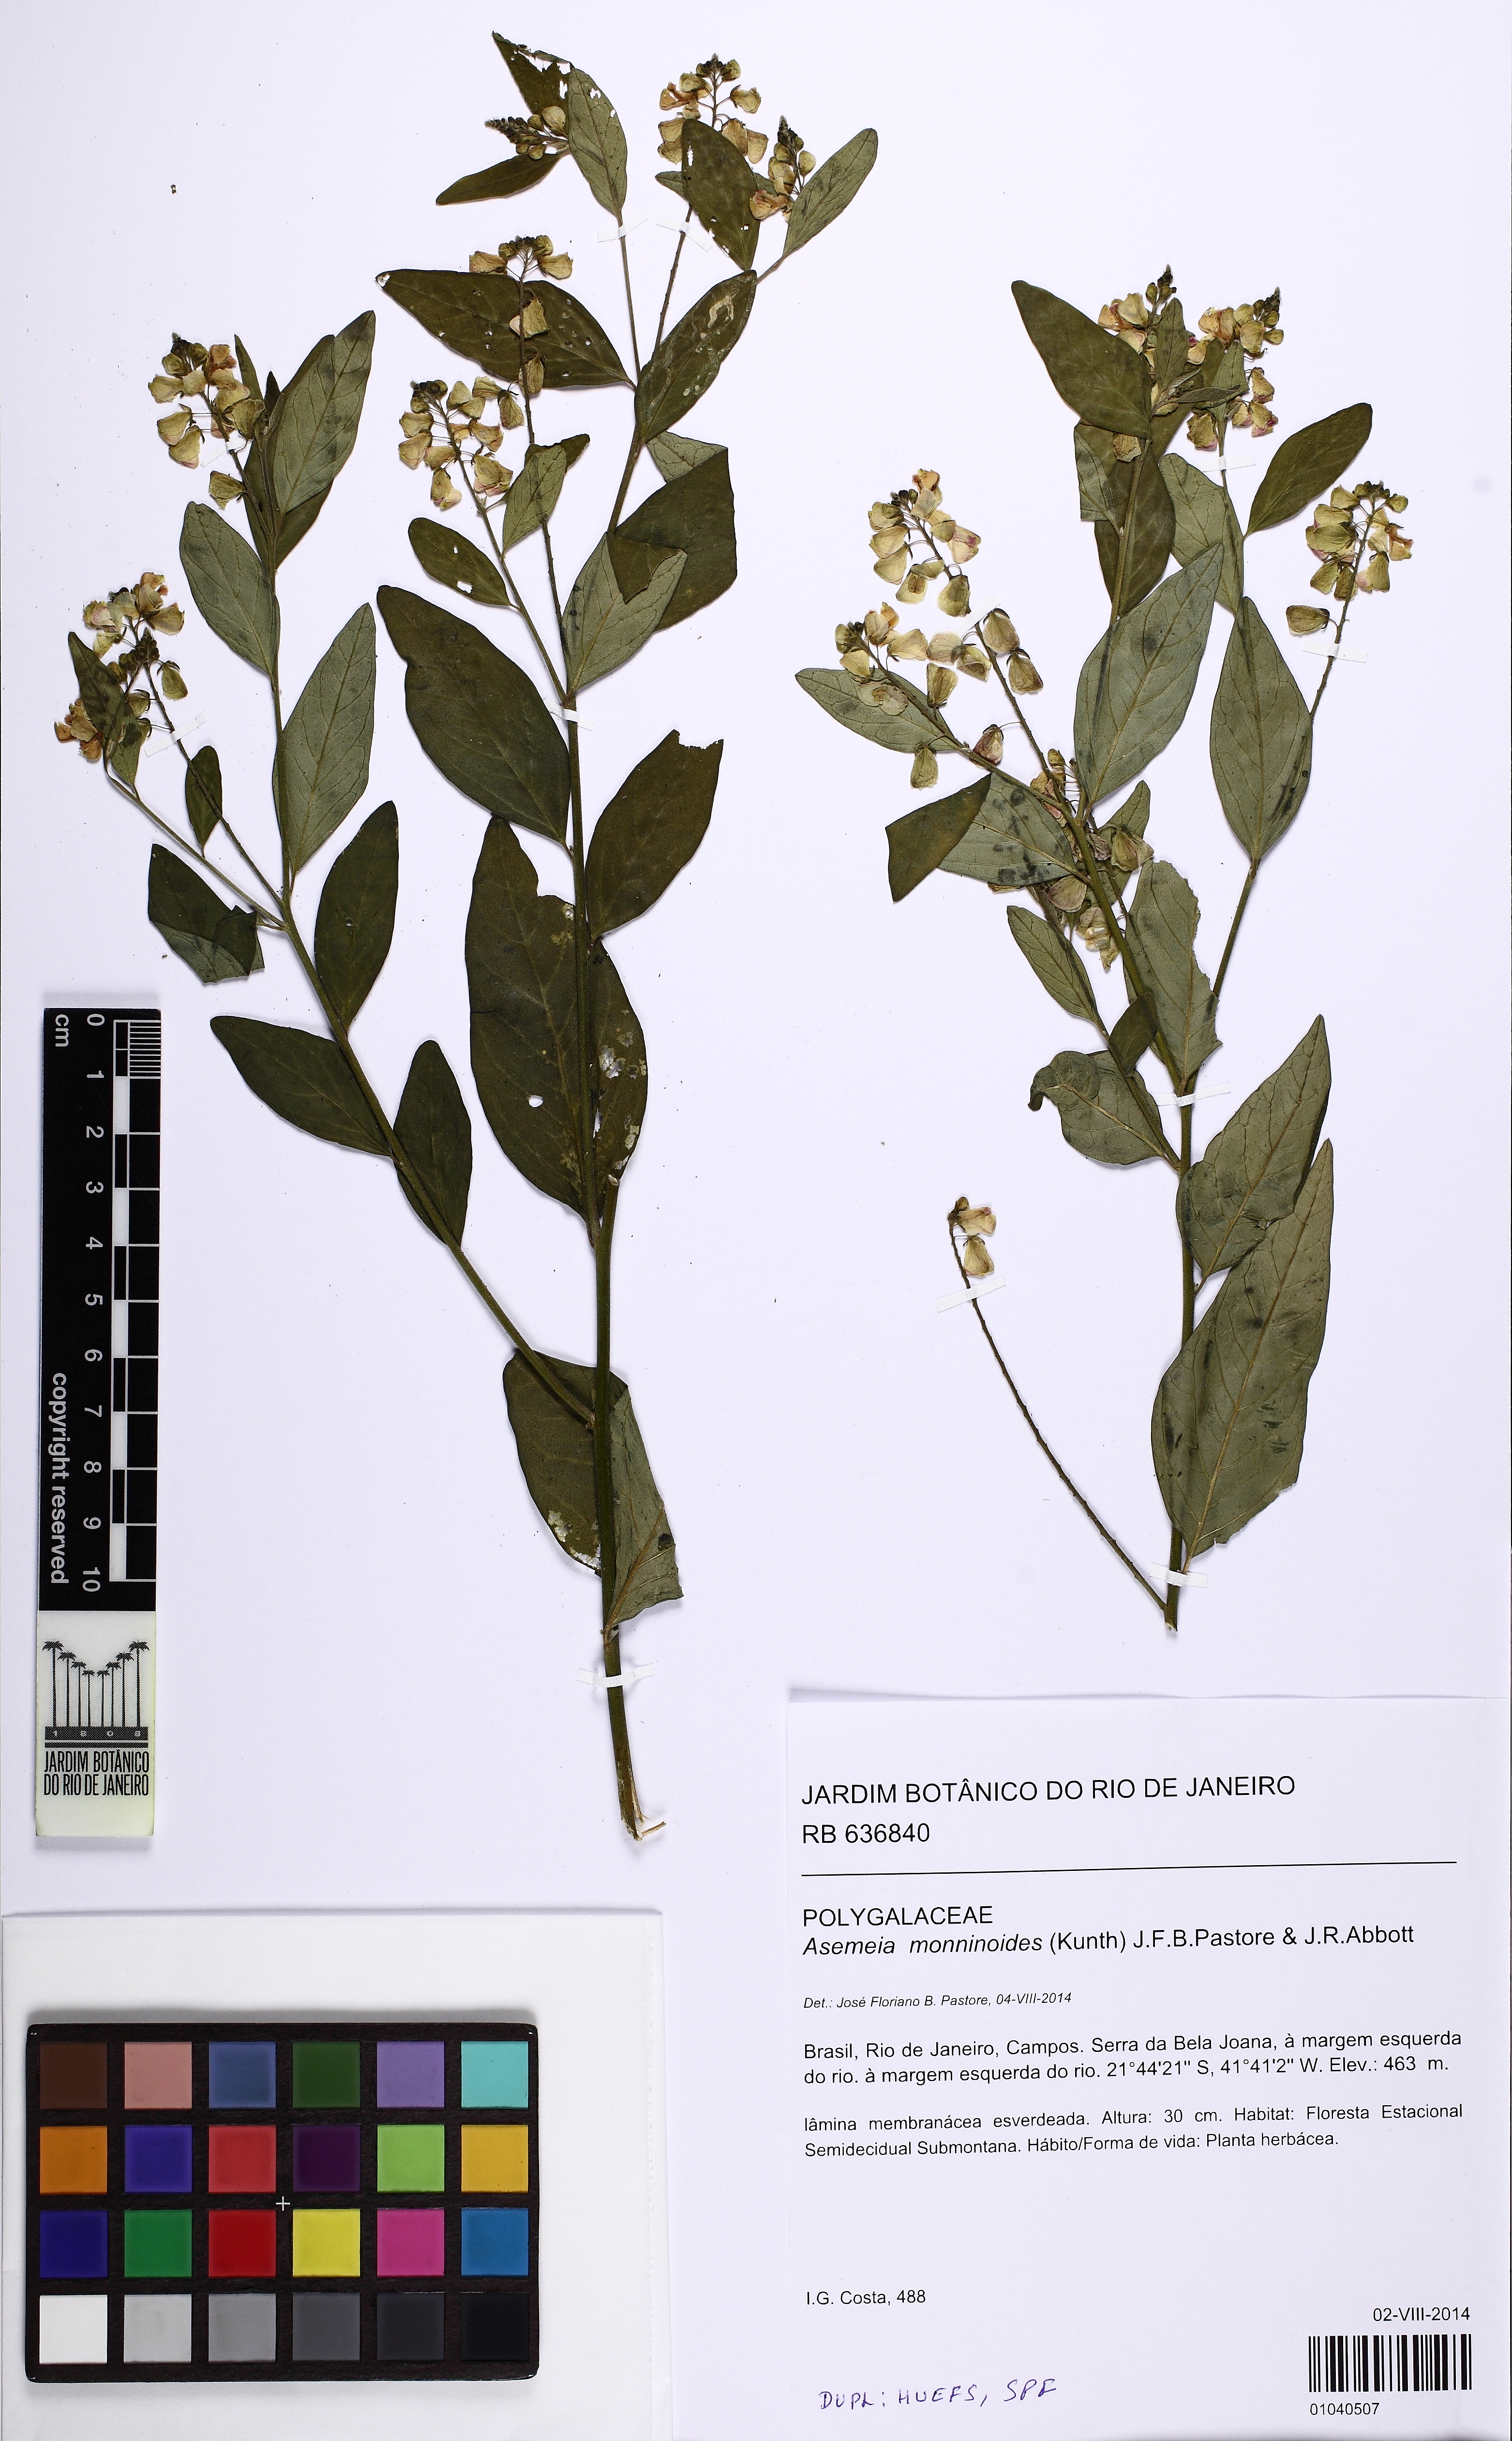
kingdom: Plantae
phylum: Tracheophyta
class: Magnoliopsida
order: Fabales
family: Polygalaceae
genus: Asemeia
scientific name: Asemeia monninoides
